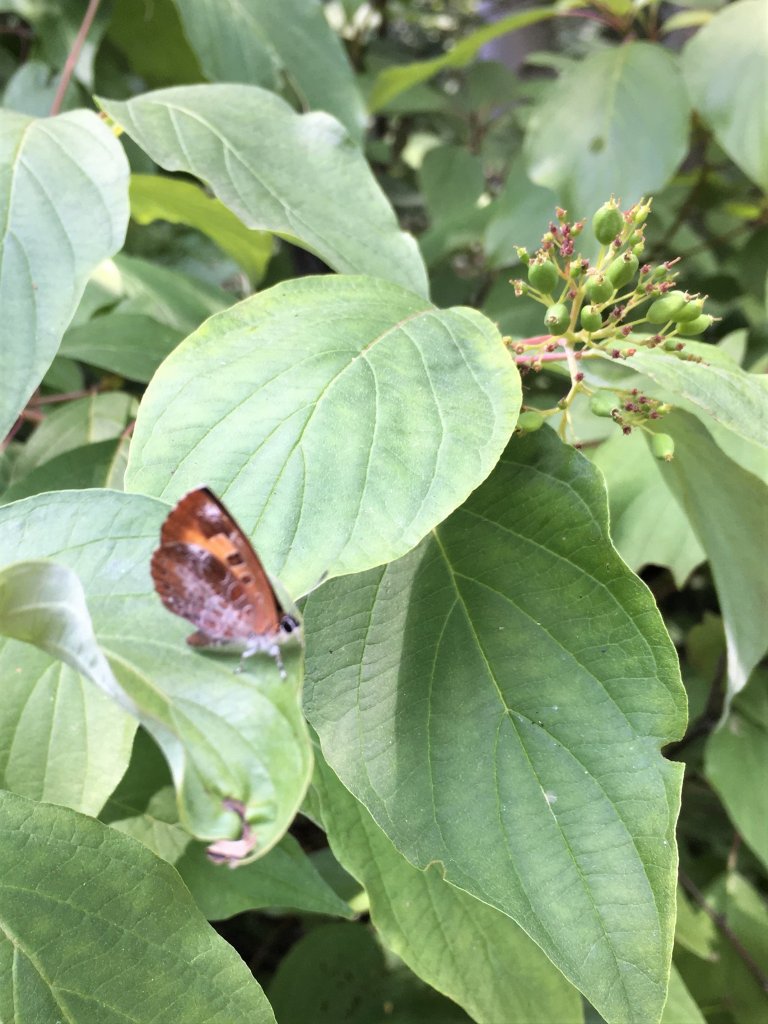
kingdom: Animalia
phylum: Arthropoda
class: Insecta
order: Lepidoptera
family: Lycaenidae
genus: Feniseca
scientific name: Feniseca tarquinius
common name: Harvester
